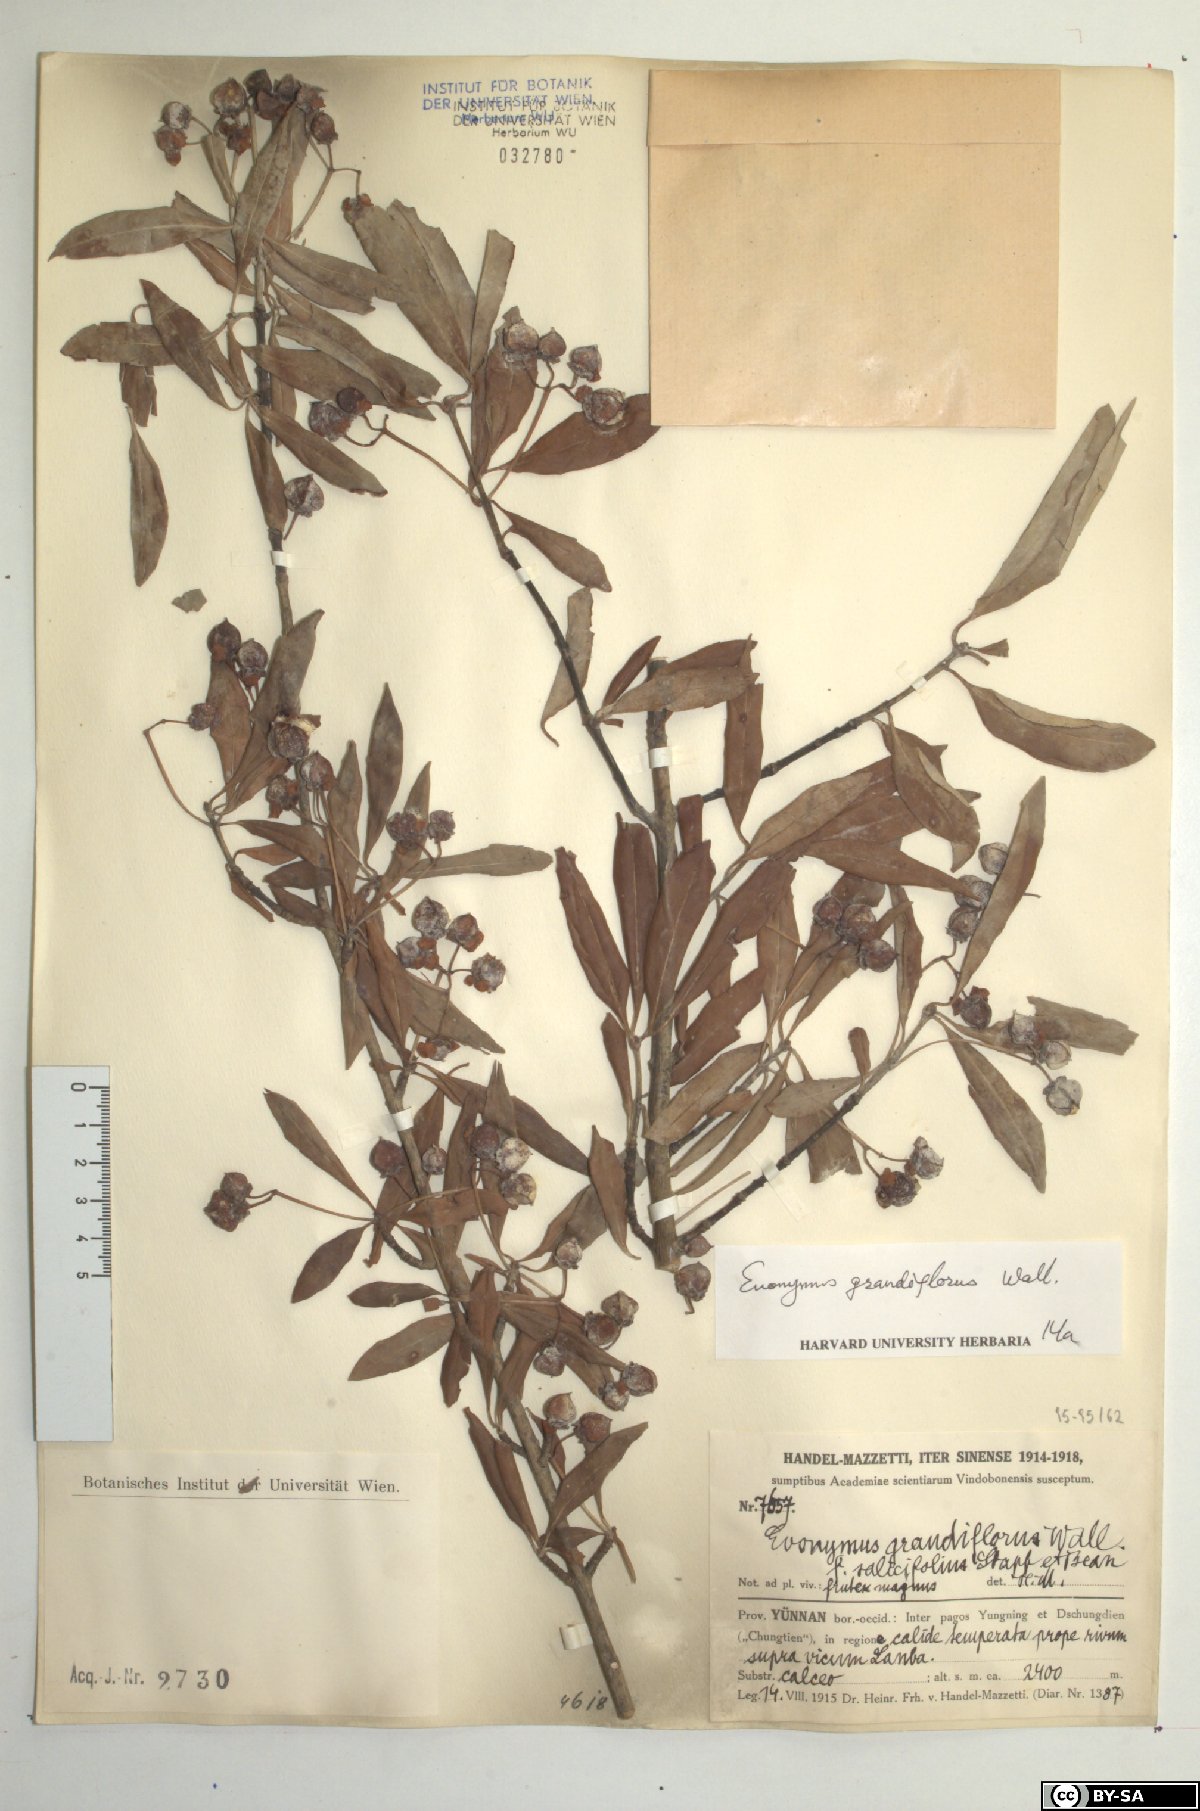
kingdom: Plantae
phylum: Tracheophyta
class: Magnoliopsida
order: Celastrales
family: Celastraceae
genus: Euonymus
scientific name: Euonymus grandiflorus
